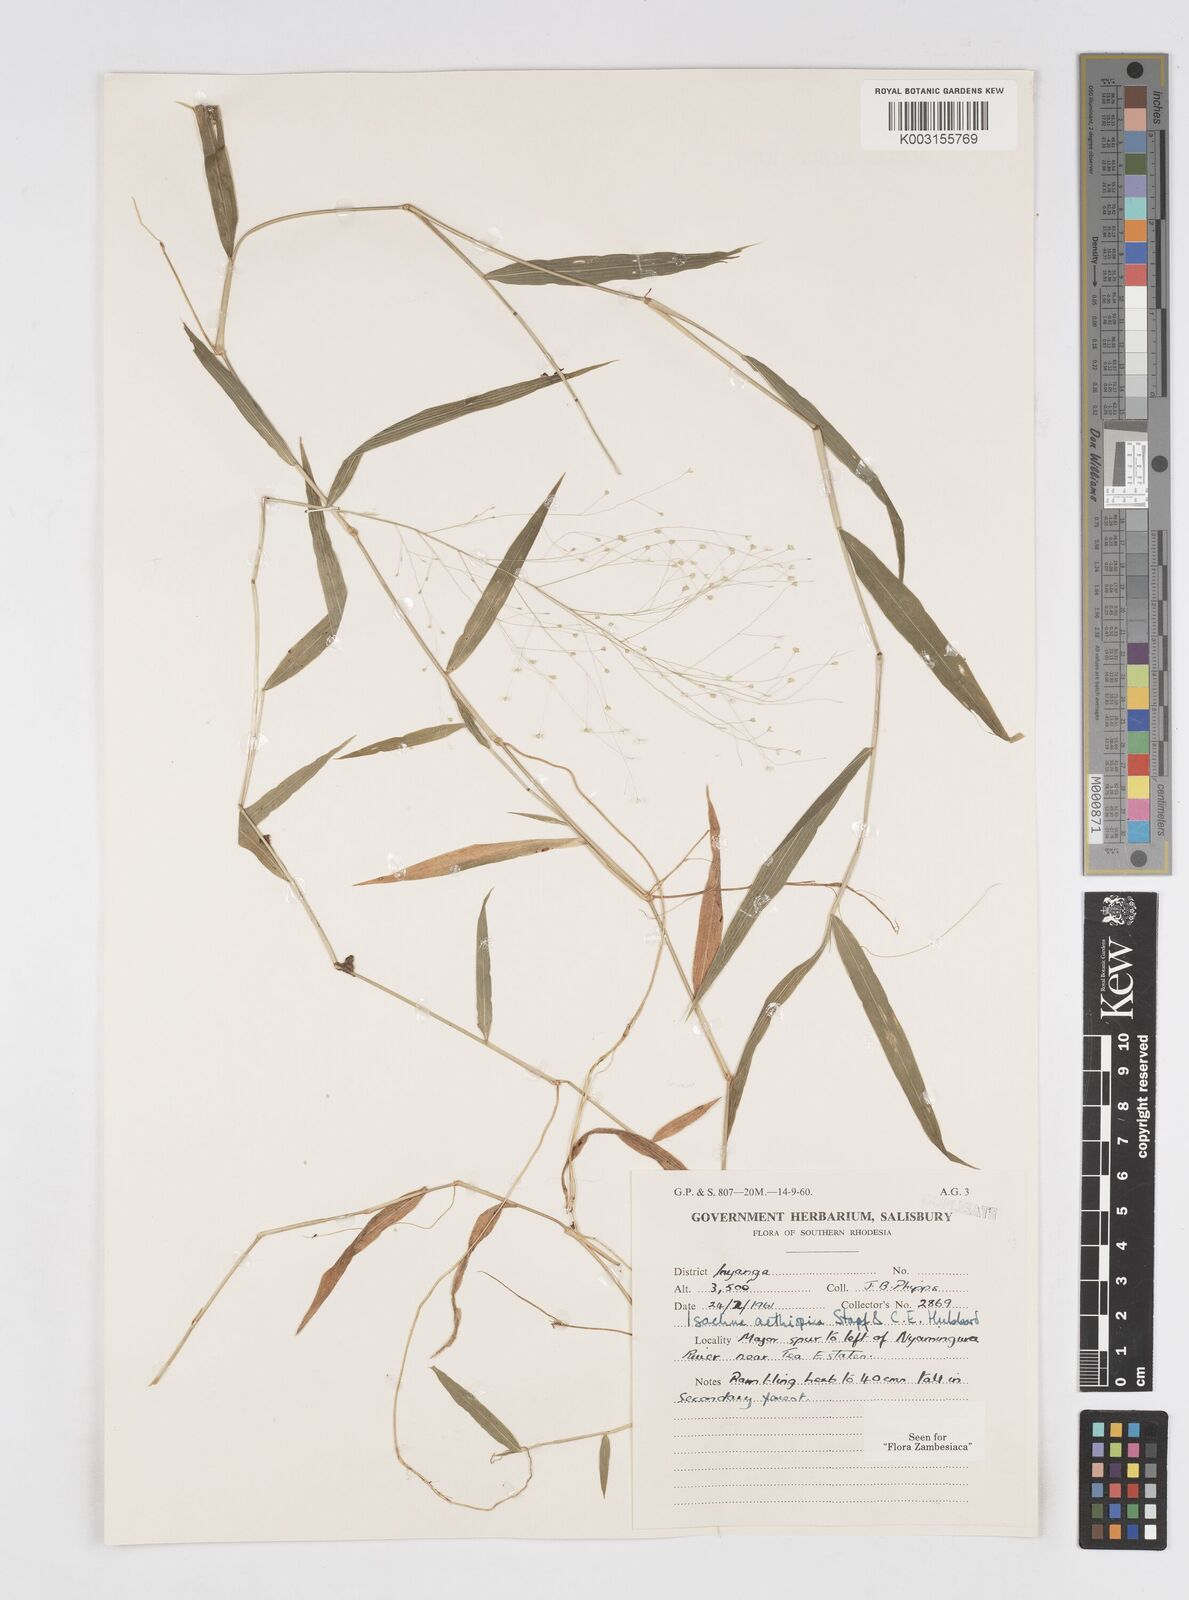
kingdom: Plantae
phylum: Tracheophyta
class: Liliopsida
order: Poales
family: Poaceae
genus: Isachne
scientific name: Isachne mauritiana
